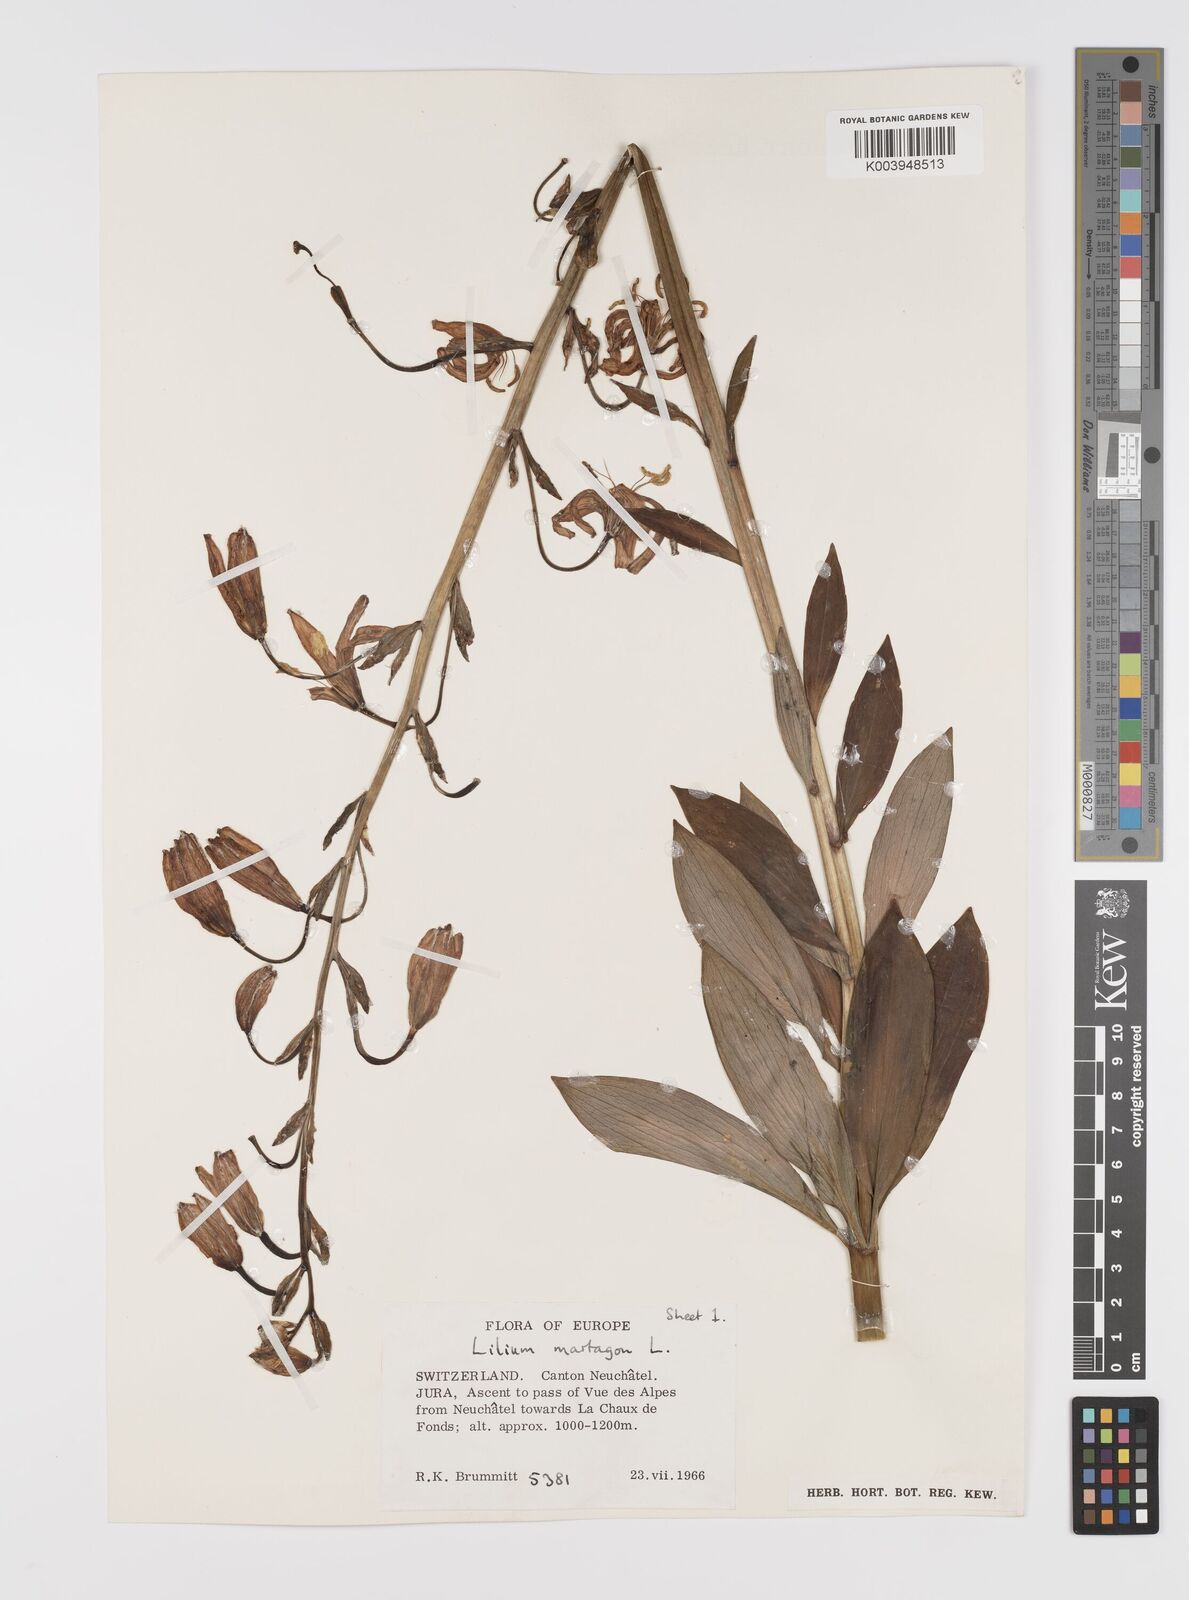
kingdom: Plantae
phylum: Tracheophyta
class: Liliopsida
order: Liliales
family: Liliaceae
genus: Lilium
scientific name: Lilium martagon
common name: Martagon lily
